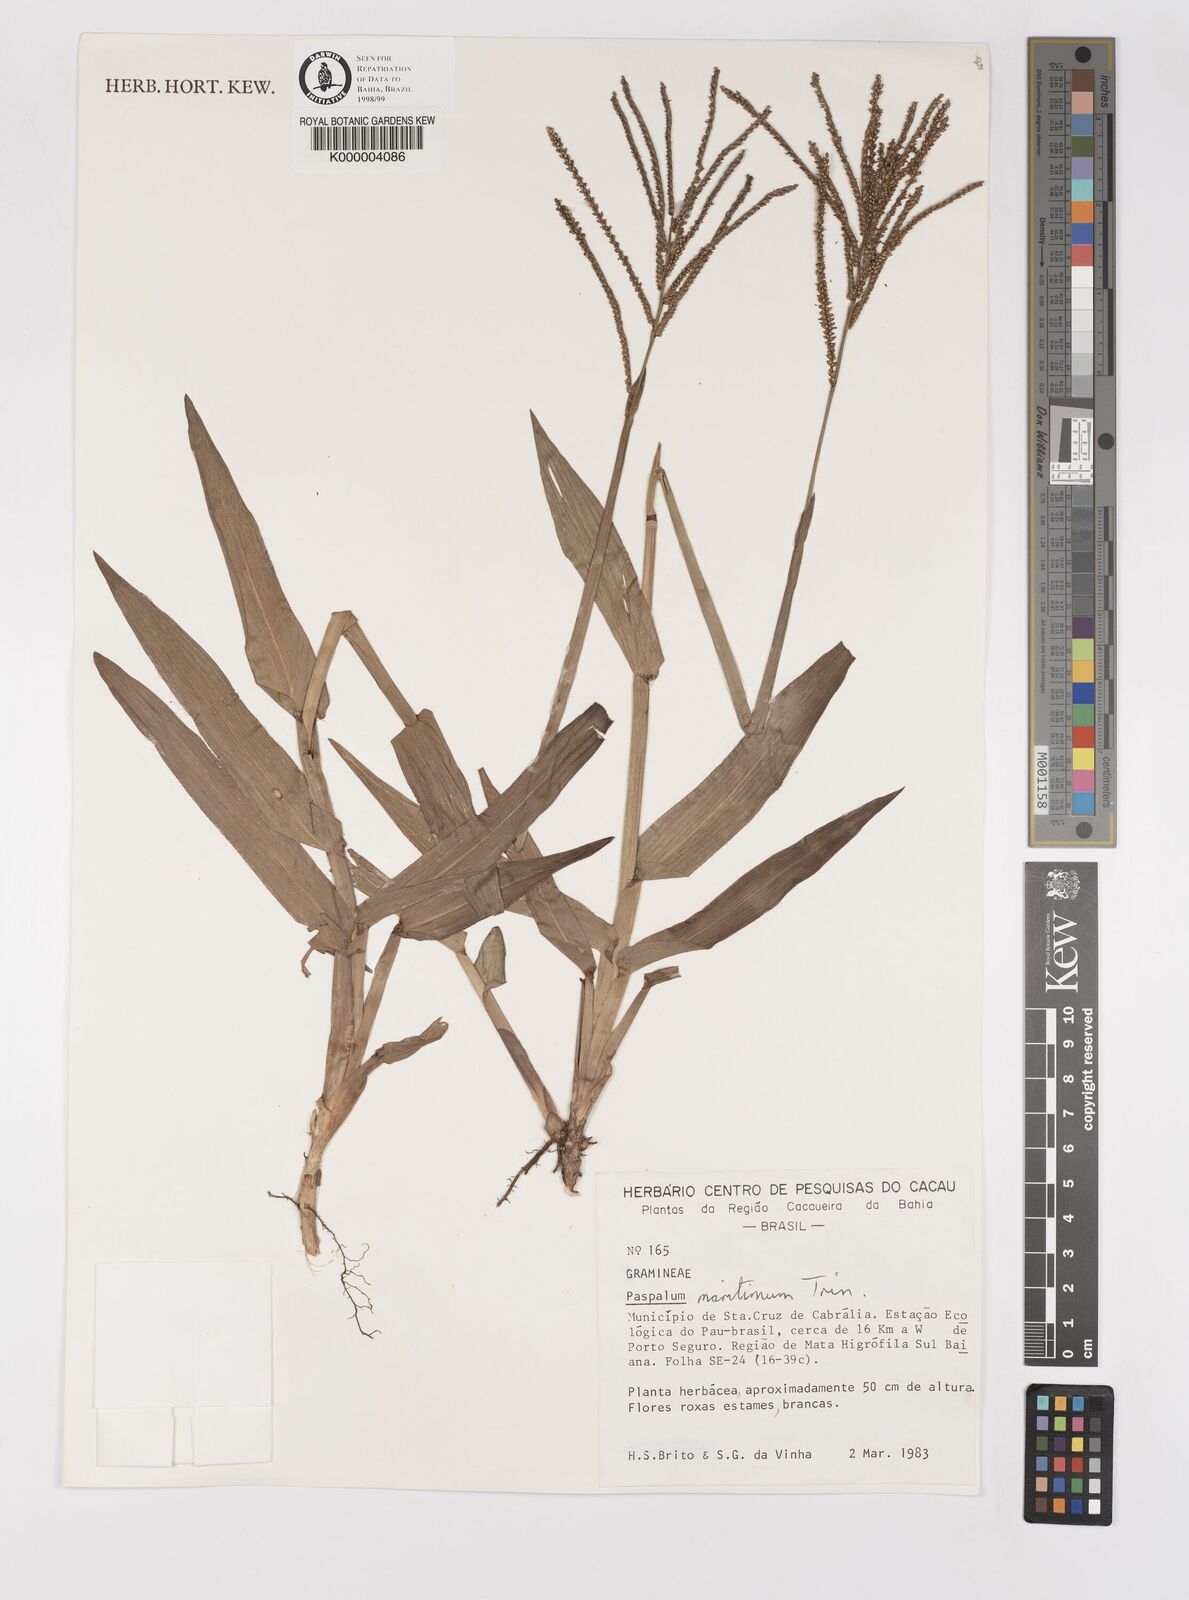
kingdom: Plantae
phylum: Tracheophyta
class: Liliopsida
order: Poales
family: Poaceae
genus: Paspalum
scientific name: Paspalum maritimum
